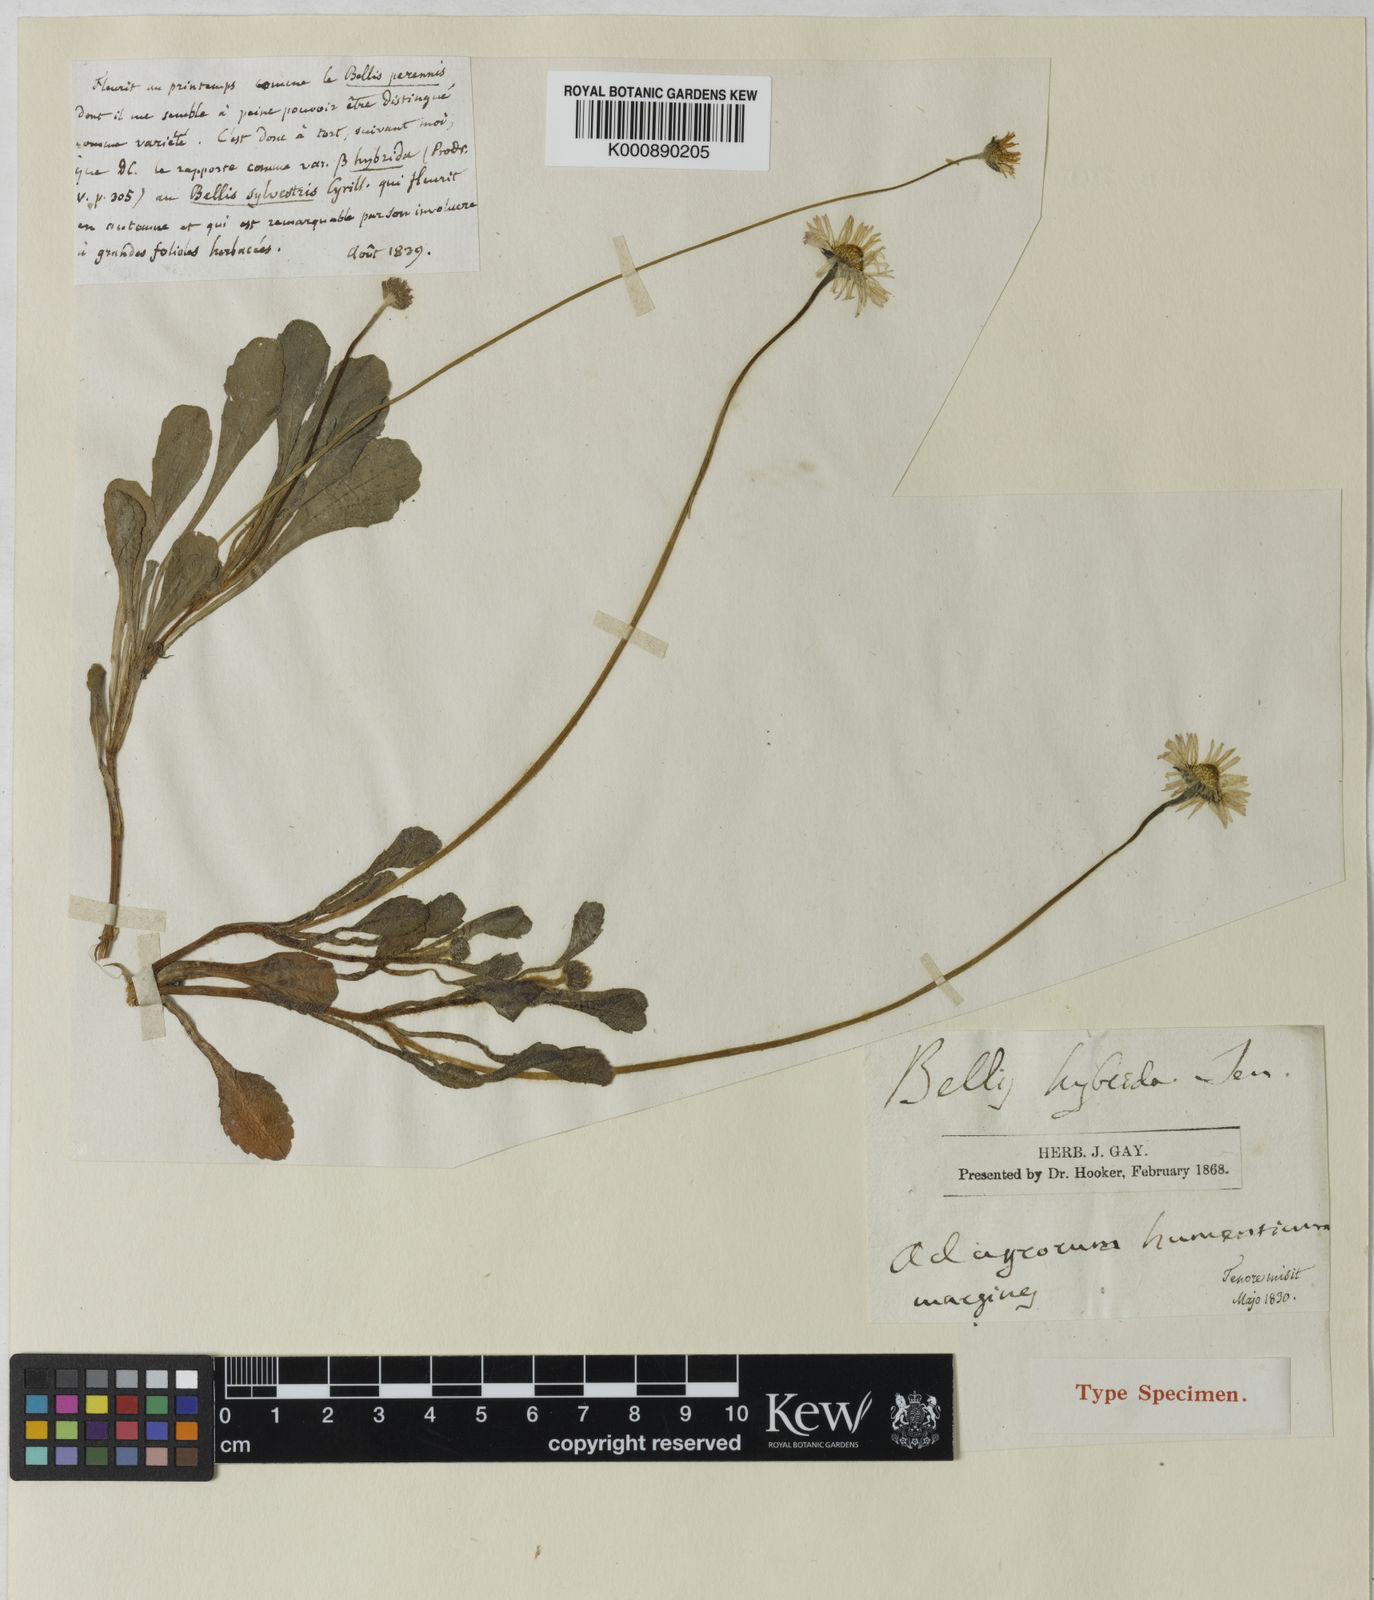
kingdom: Plantae
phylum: Tracheophyta
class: Magnoliopsida
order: Asterales
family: Asteraceae
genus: Bellis
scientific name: Bellis perennis
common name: Lawndaisy
